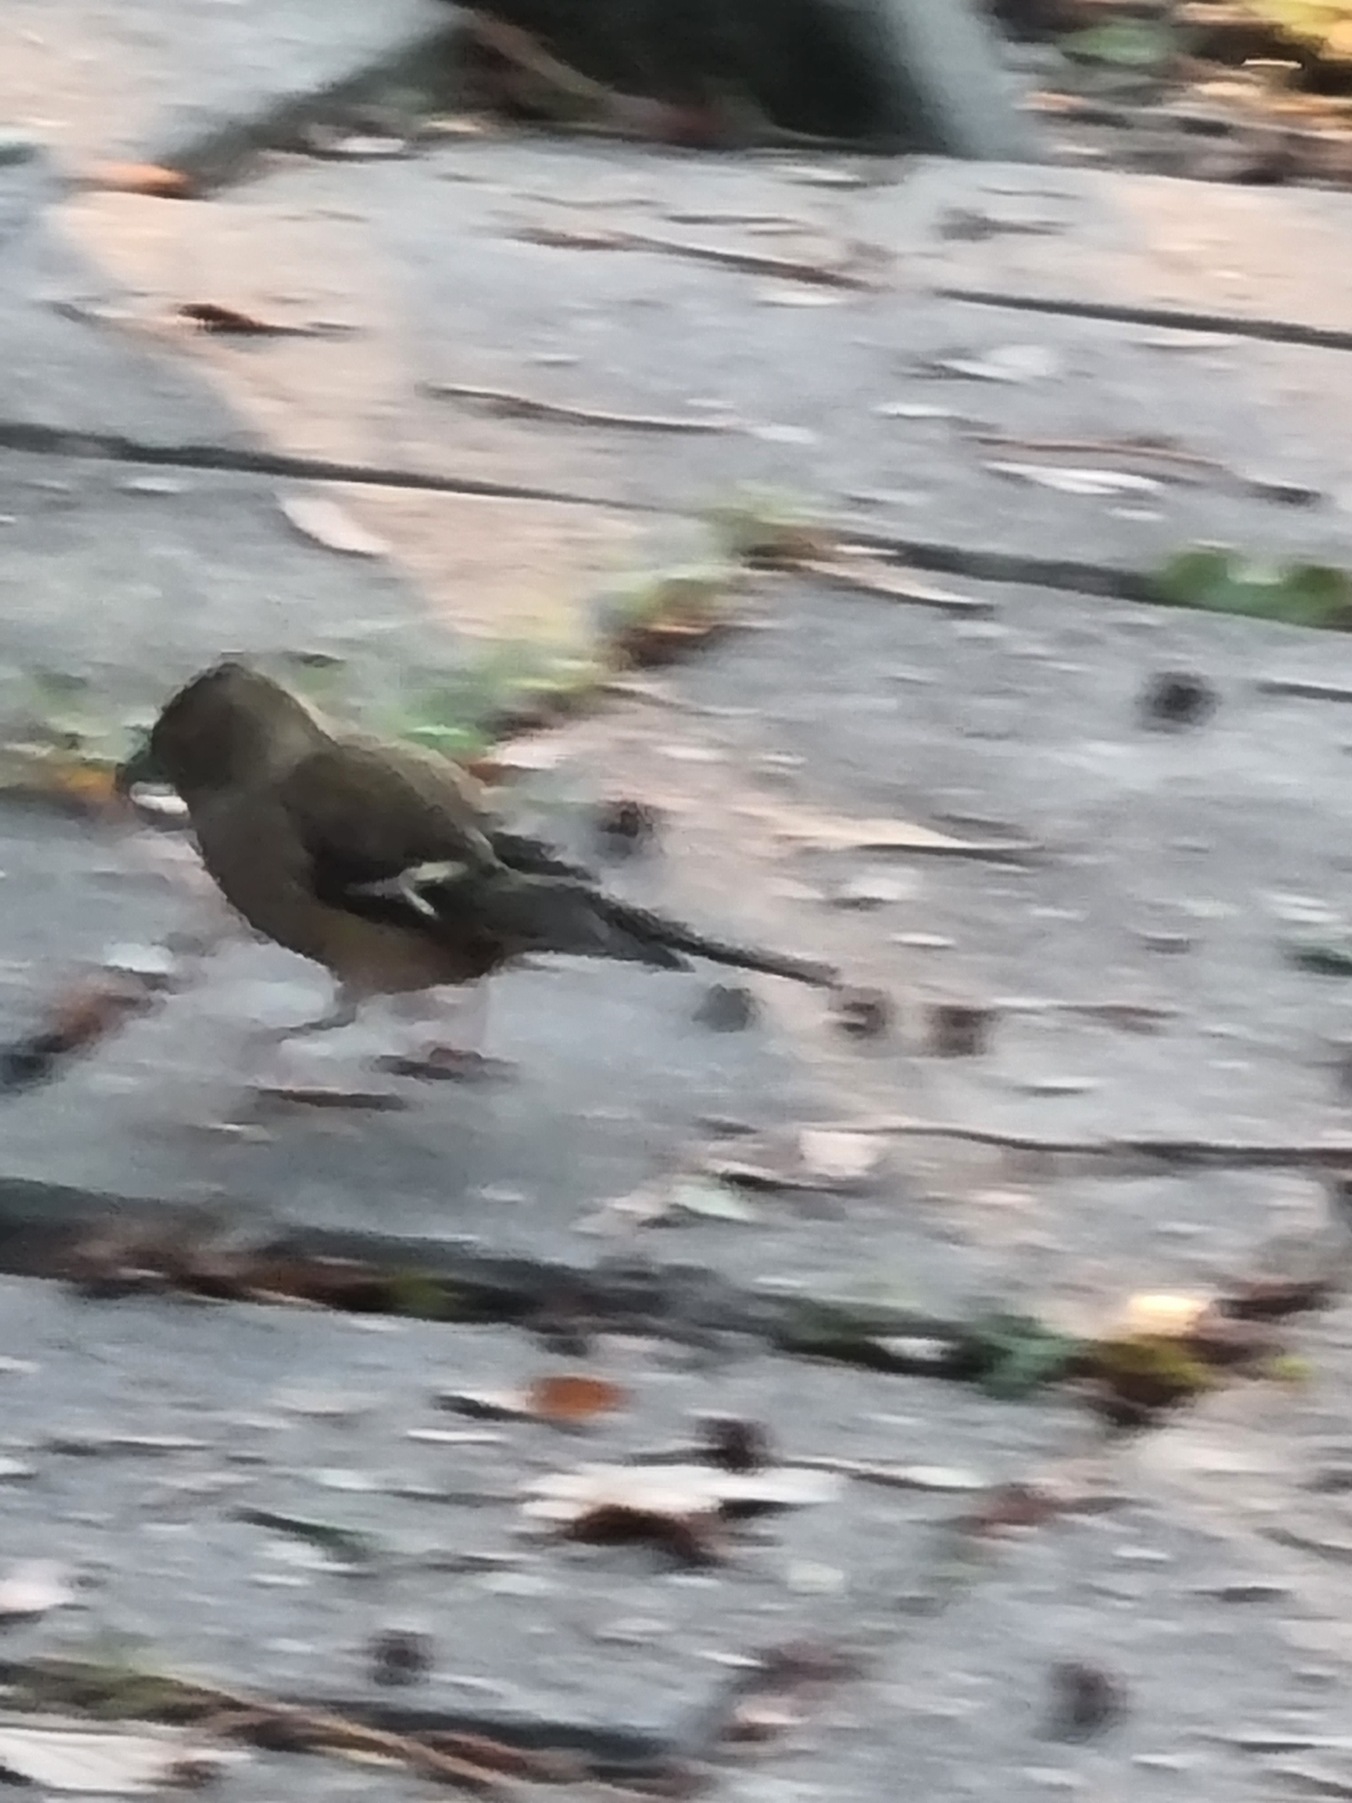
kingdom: Animalia
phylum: Chordata
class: Aves
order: Passeriformes
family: Fringillidae
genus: Fringilla
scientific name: Fringilla coelebs
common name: Bogfinke
